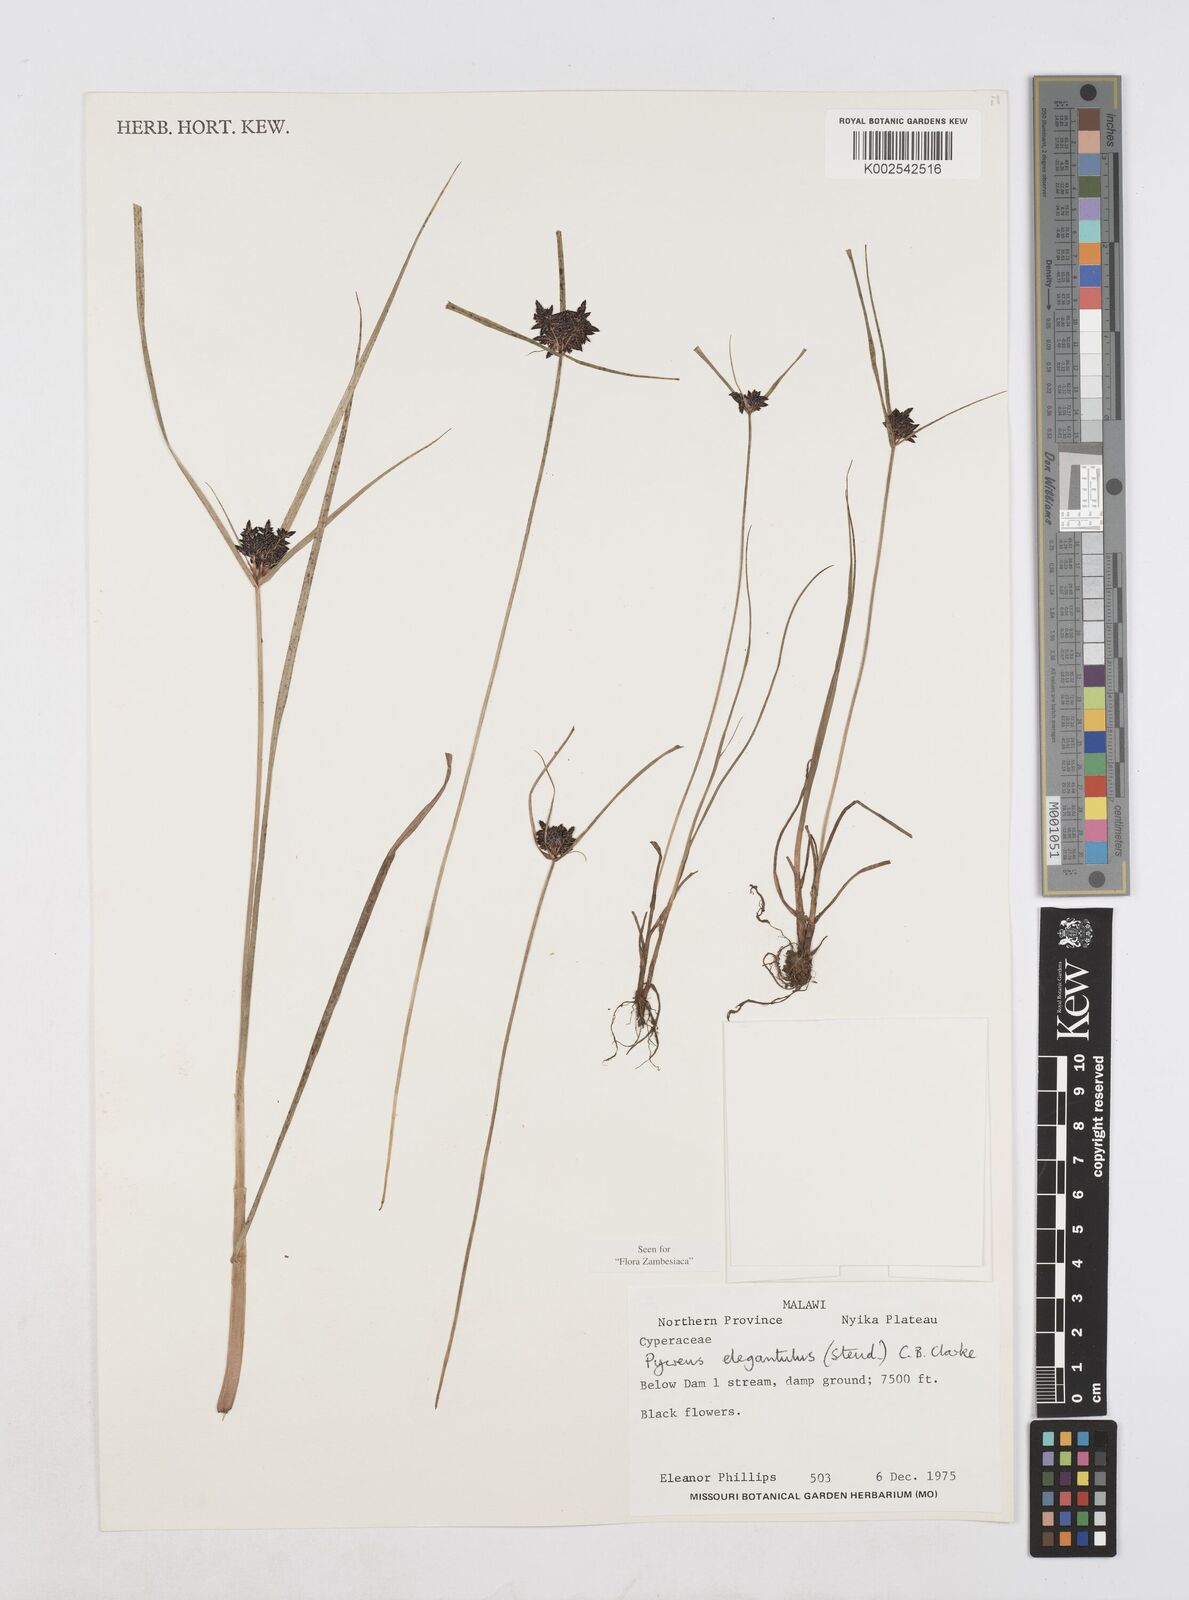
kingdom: Plantae
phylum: Tracheophyta
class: Liliopsida
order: Poales
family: Cyperaceae
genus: Cyperus
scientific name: Cyperus elegantulus
